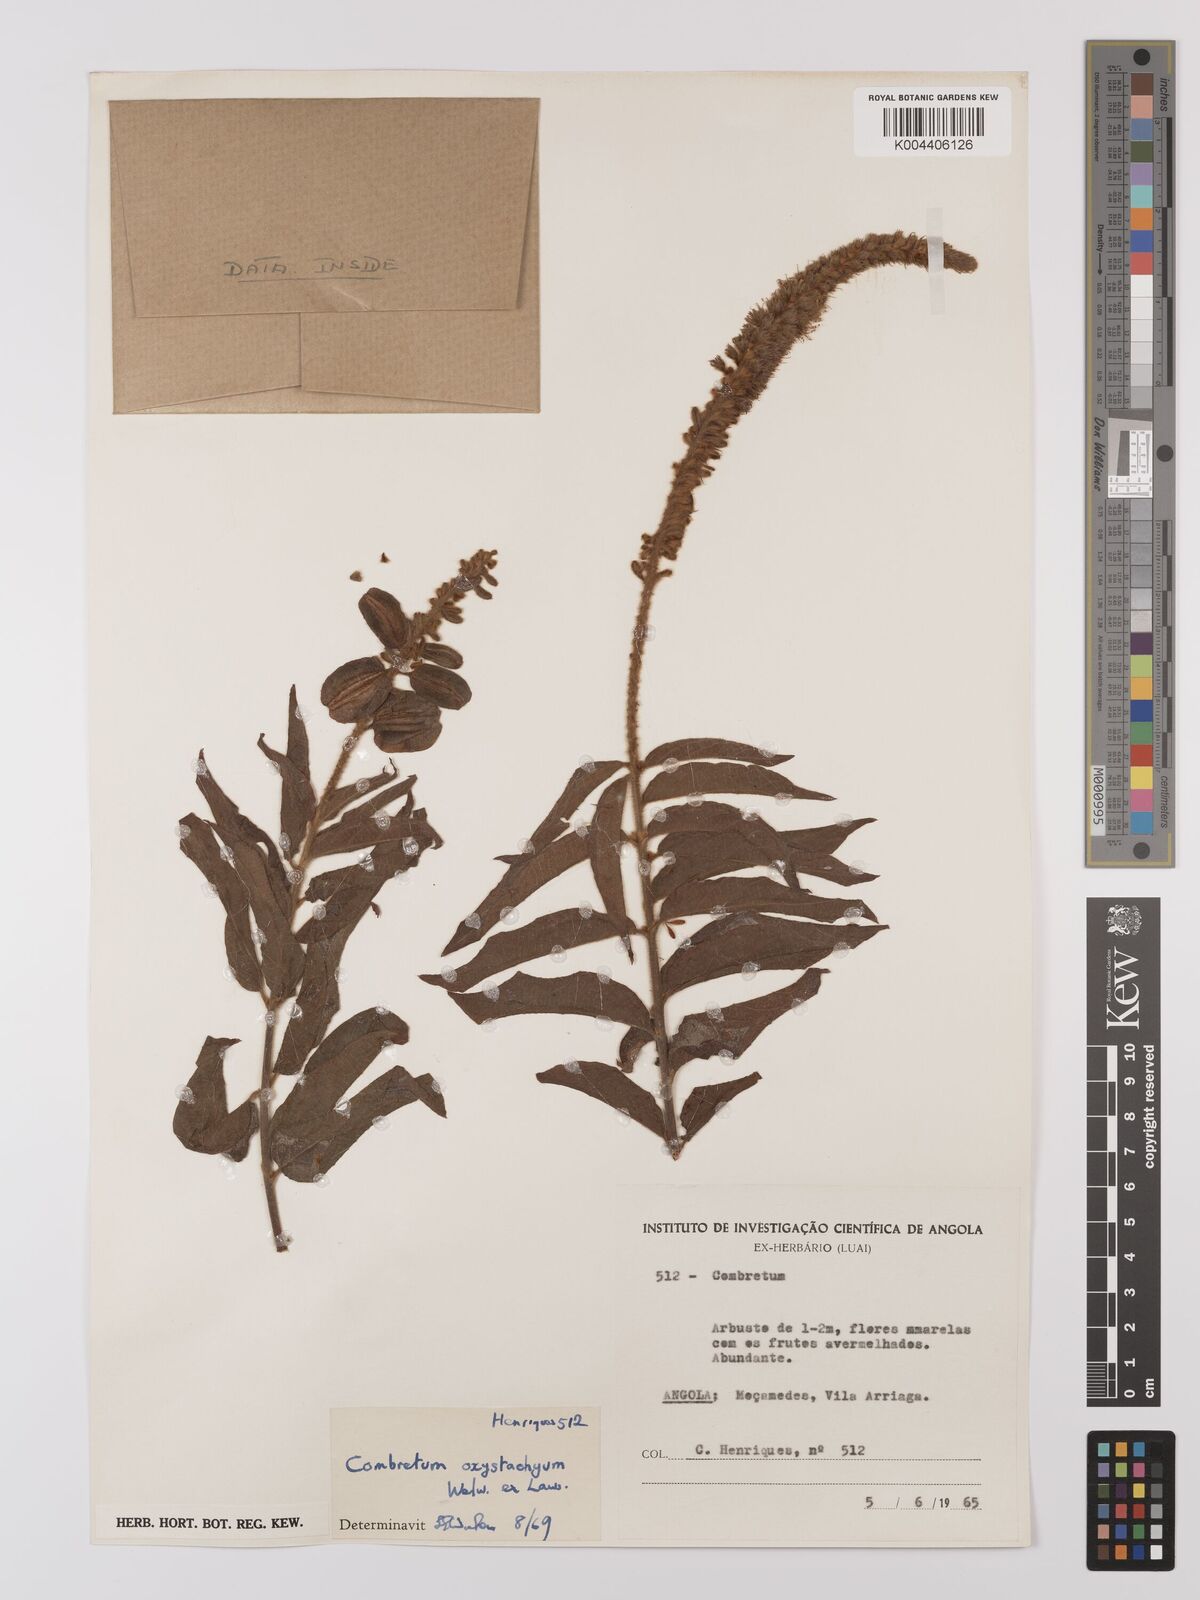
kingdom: Plantae
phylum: Tracheophyta
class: Magnoliopsida
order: Myrtales
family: Combretaceae
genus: Combretum
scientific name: Combretum oxystachyum
